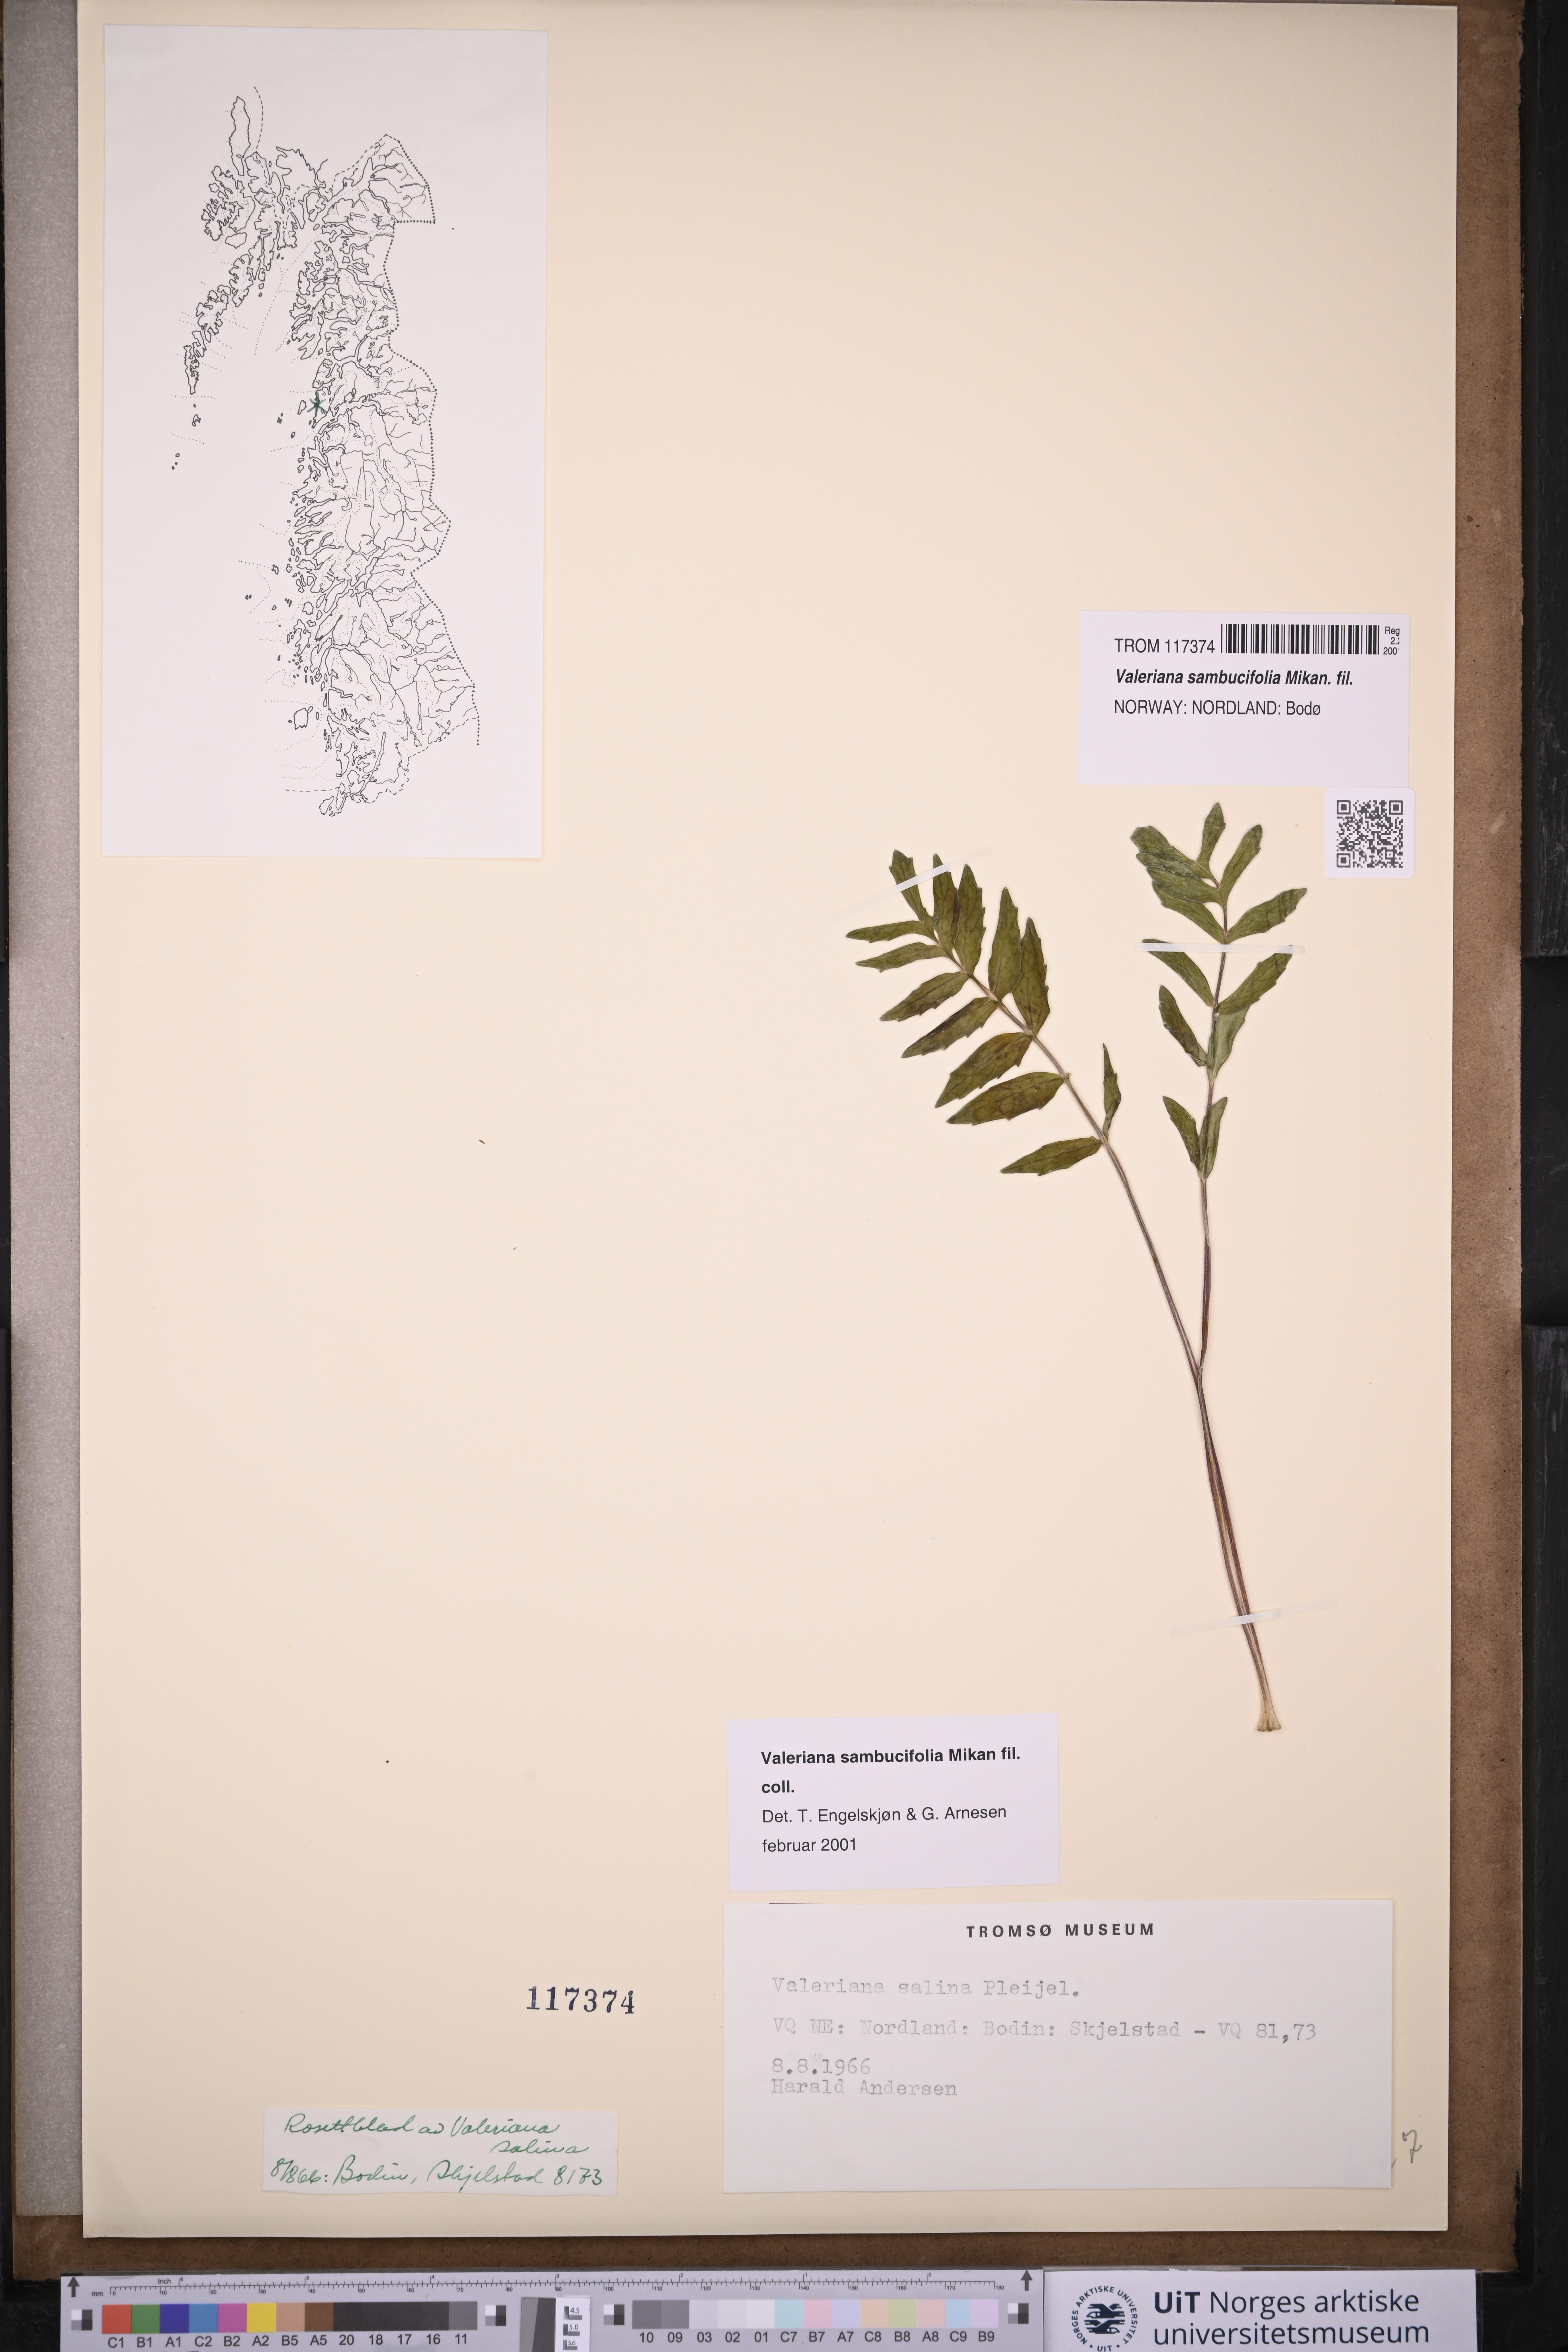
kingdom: Plantae
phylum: Tracheophyta
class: Magnoliopsida
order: Dipsacales
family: Caprifoliaceae
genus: Valeriana
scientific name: Valeriana excelsa
